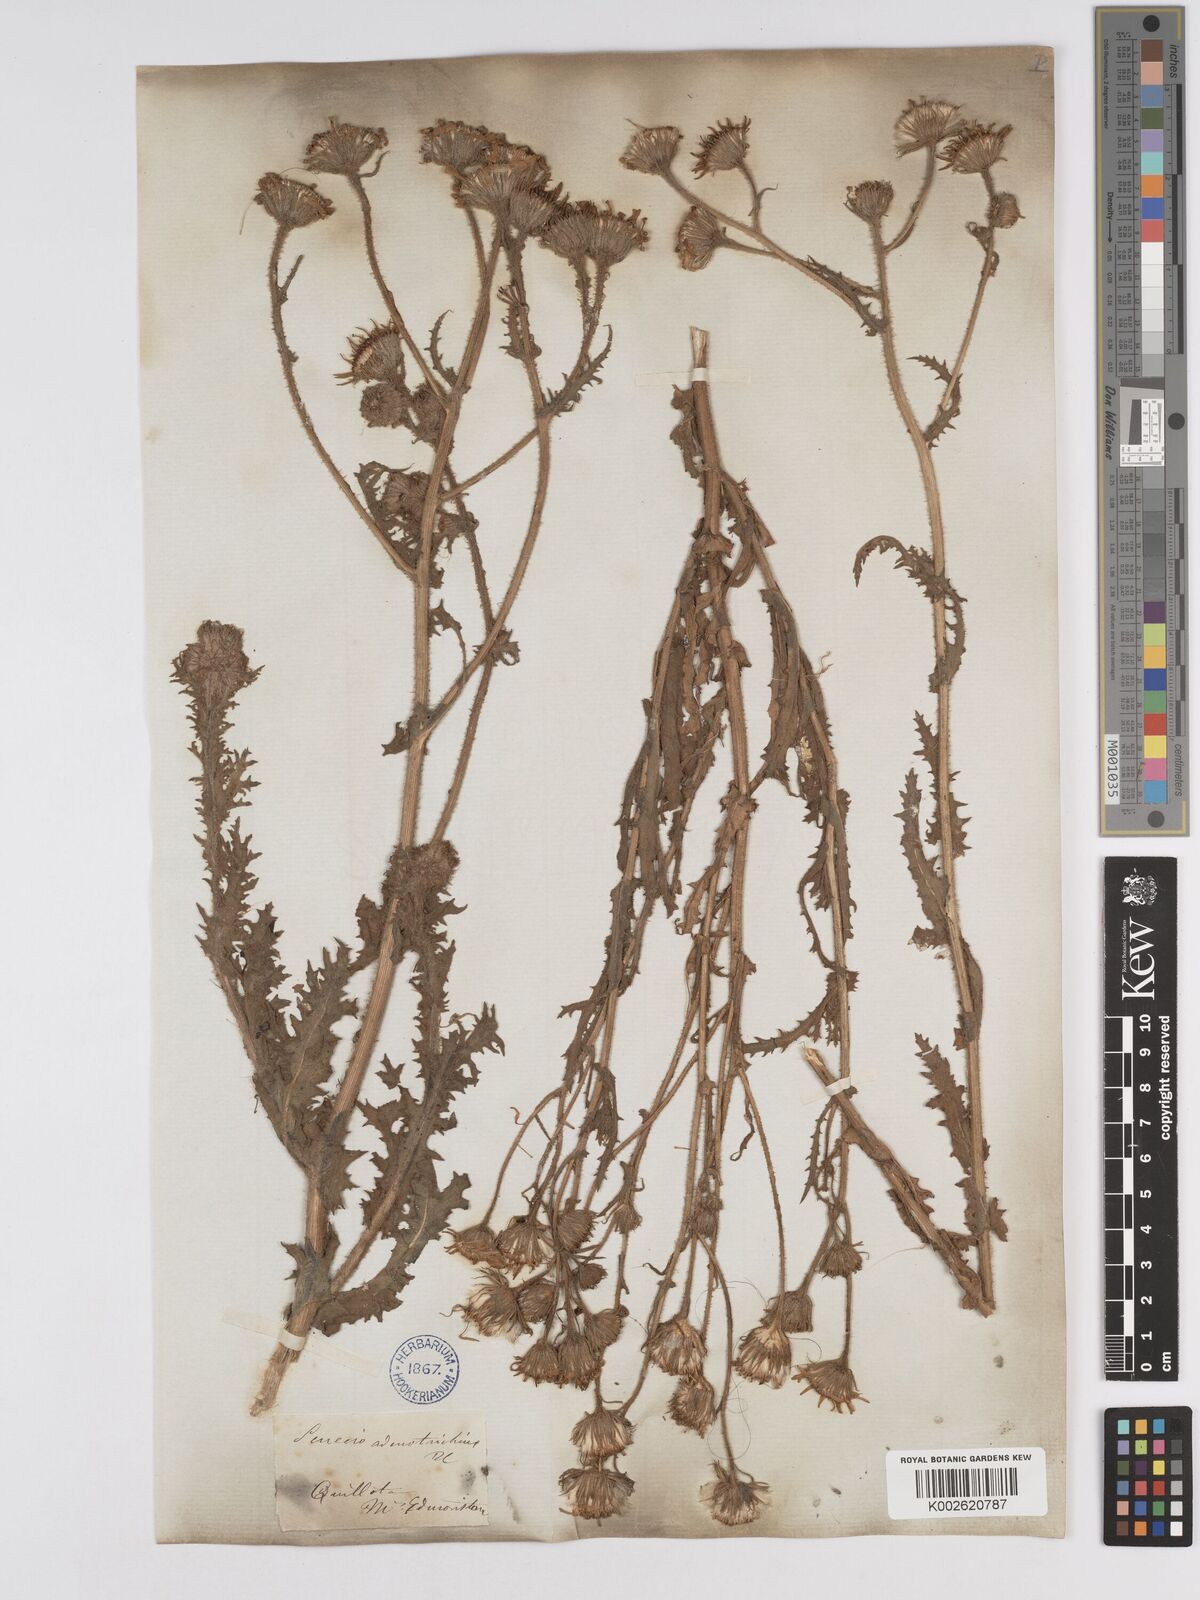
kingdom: Plantae
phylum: Tracheophyta
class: Magnoliopsida
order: Asterales
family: Asteraceae
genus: Senecio
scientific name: Senecio adenotrichius
